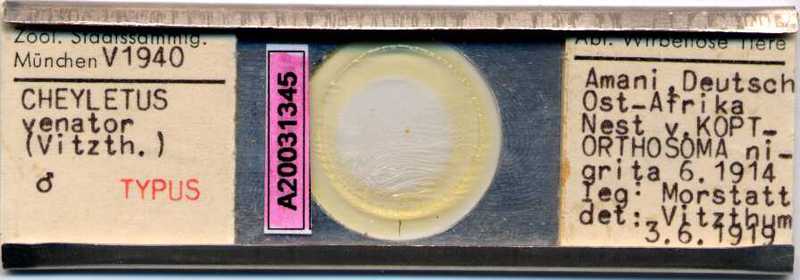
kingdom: Animalia
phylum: Arthropoda
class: Arachnida
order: Trombidiformes
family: Cheyletidae
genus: Cheyletus
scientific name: Cheyletus venator
